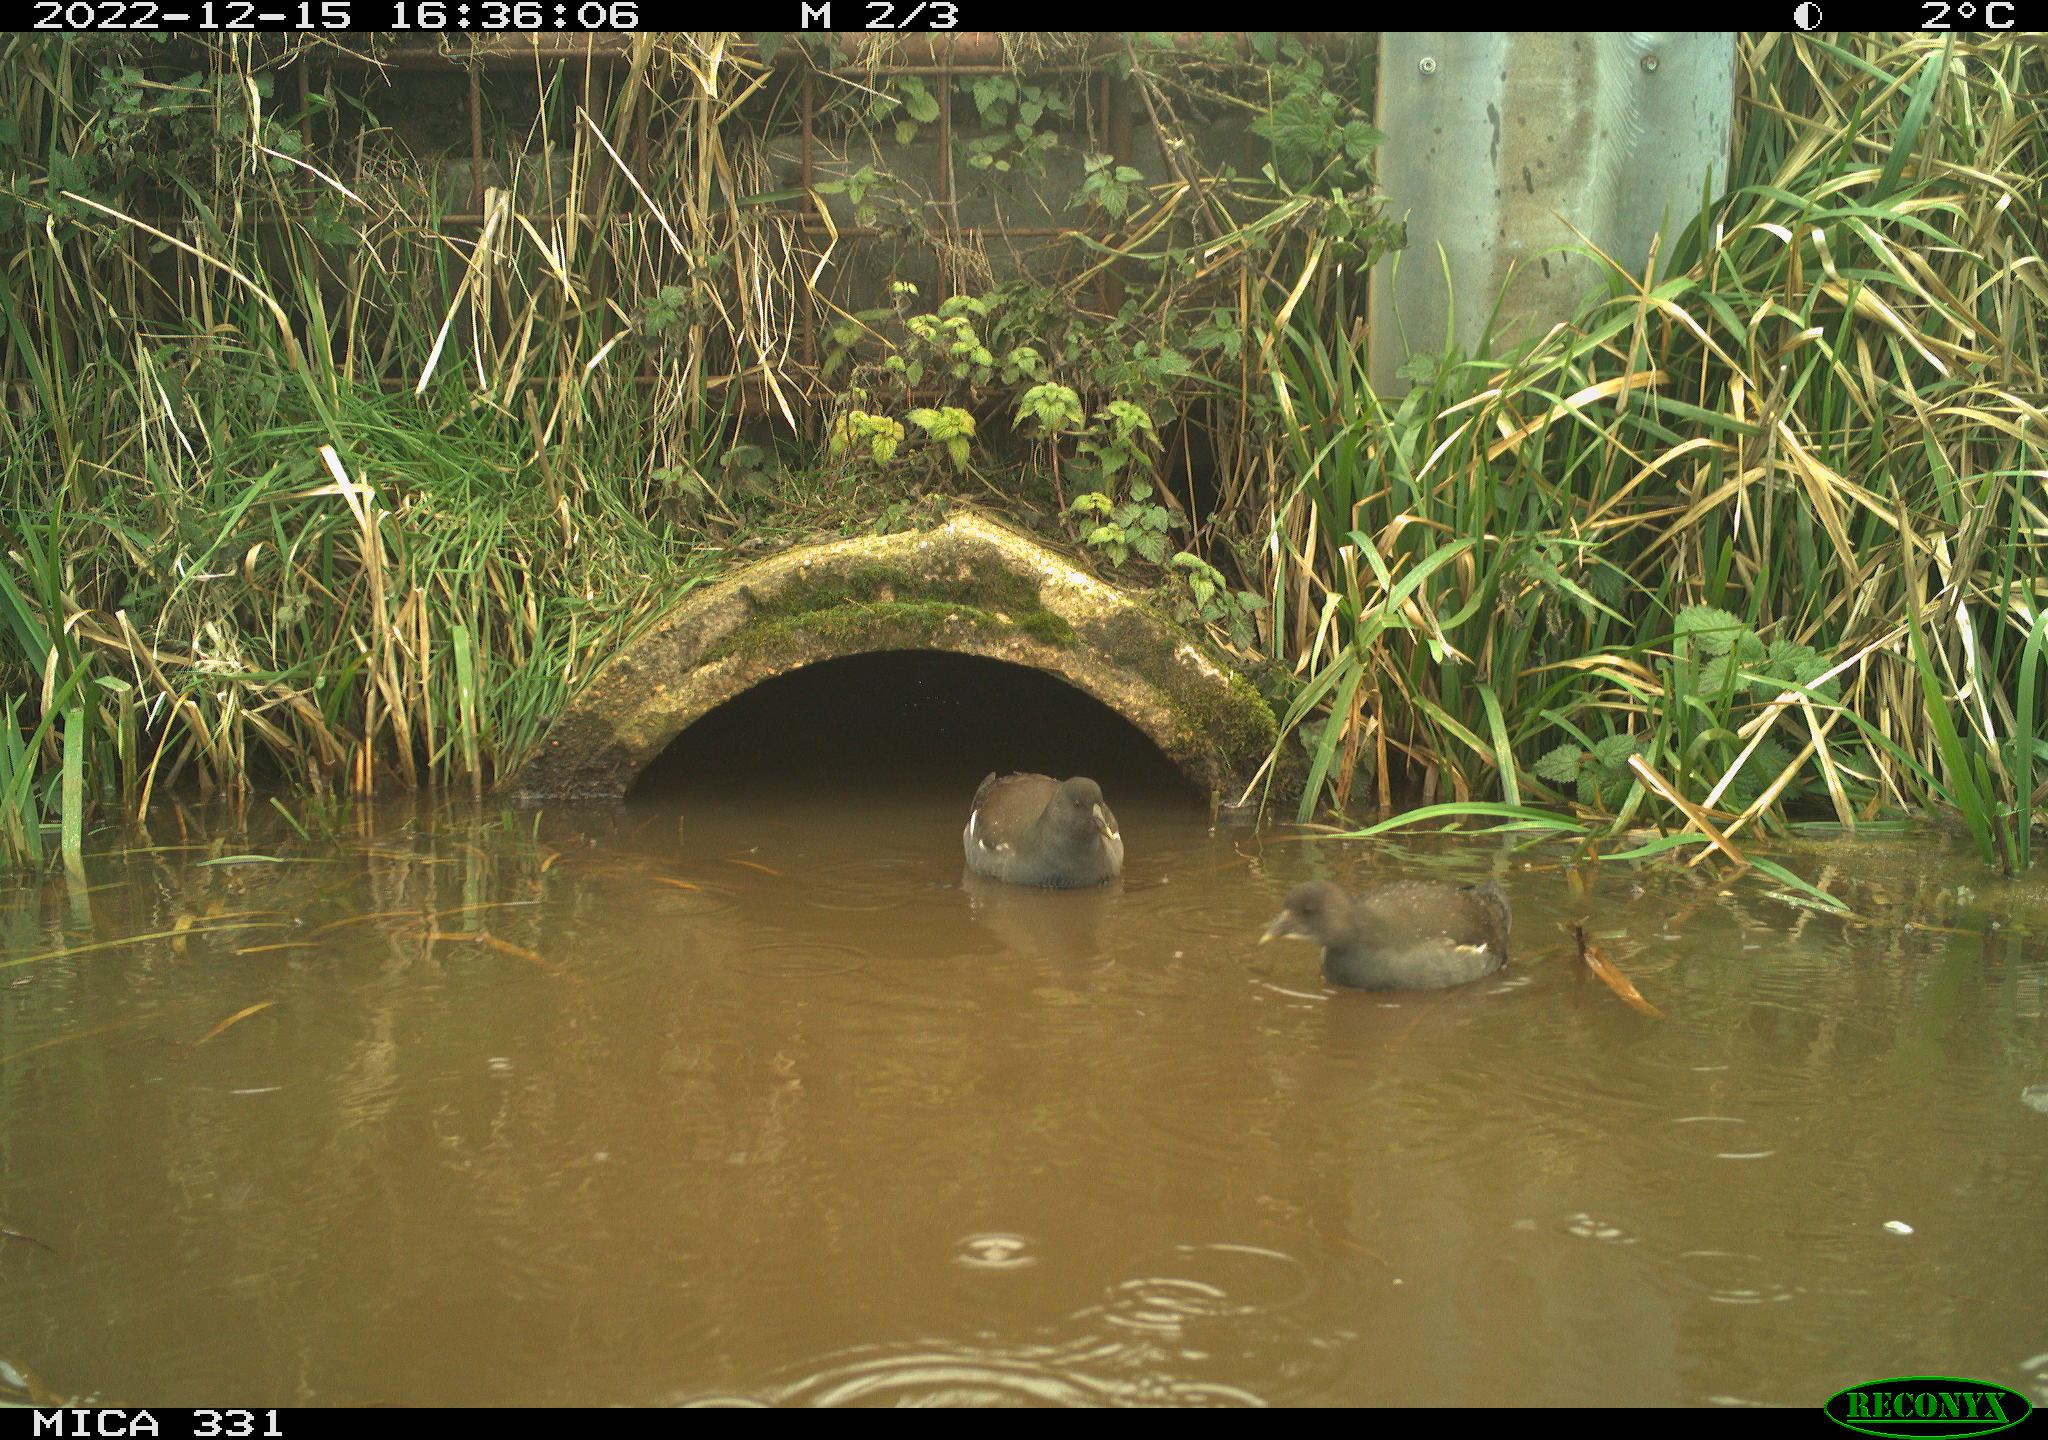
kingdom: Animalia
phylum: Chordata
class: Aves
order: Gruiformes
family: Rallidae
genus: Gallinula
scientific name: Gallinula chloropus
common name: Common moorhen
